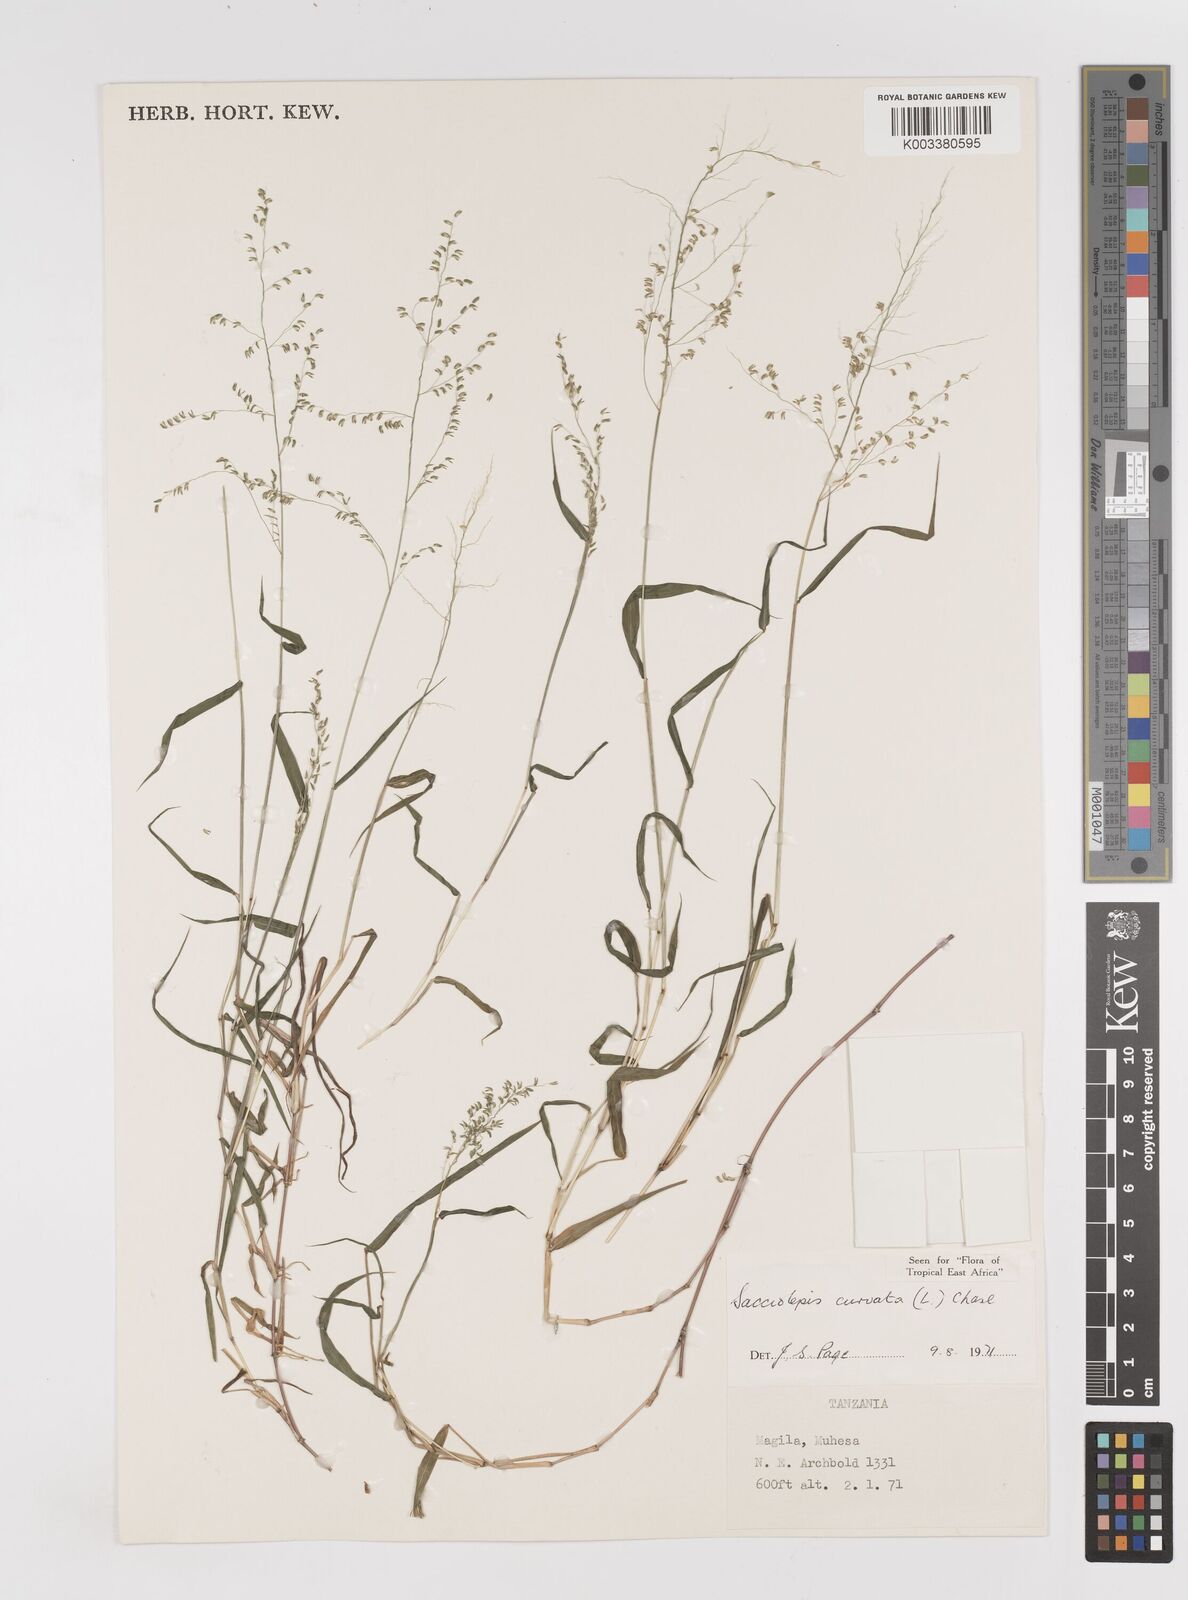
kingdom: Plantae
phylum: Tracheophyta
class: Liliopsida
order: Poales
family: Poaceae
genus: Sacciolepis
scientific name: Sacciolepis curvata
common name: Forest hood grass
